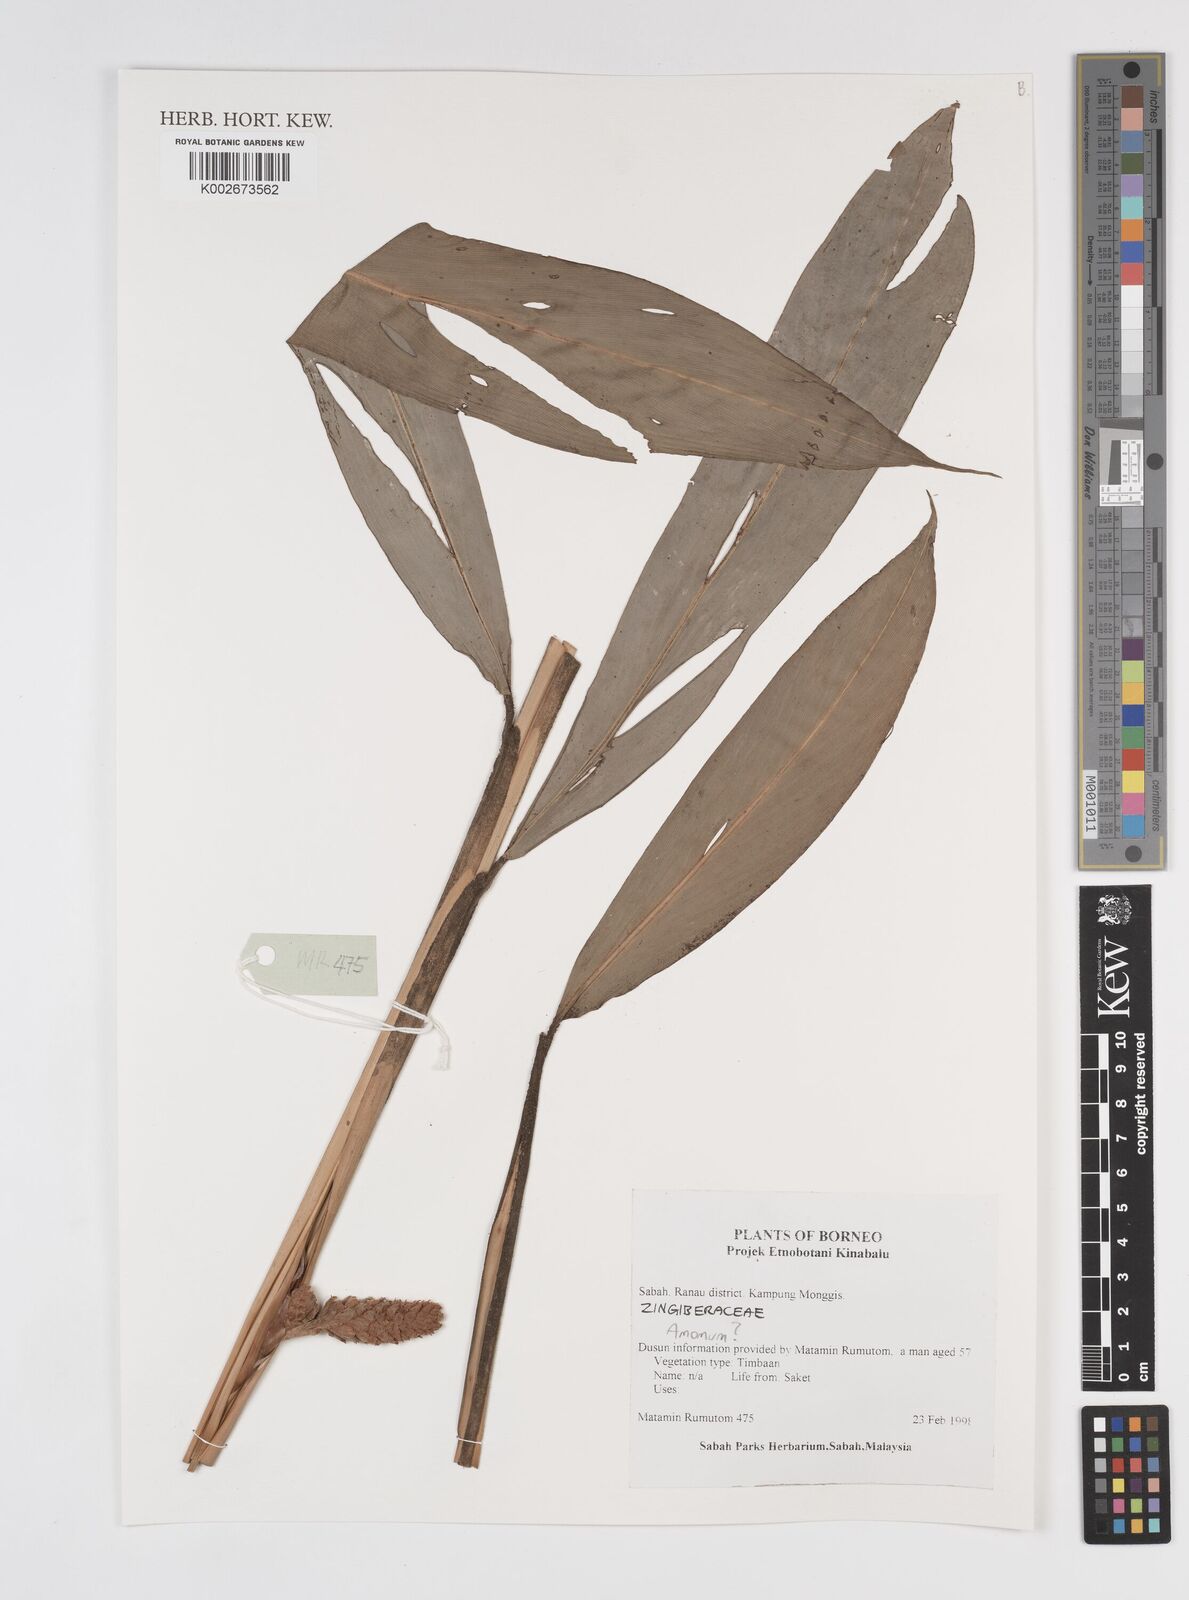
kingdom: Plantae
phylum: Tracheophyta
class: Liliopsida
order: Zingiberales
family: Zingiberaceae
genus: Amomum
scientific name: Amomum
